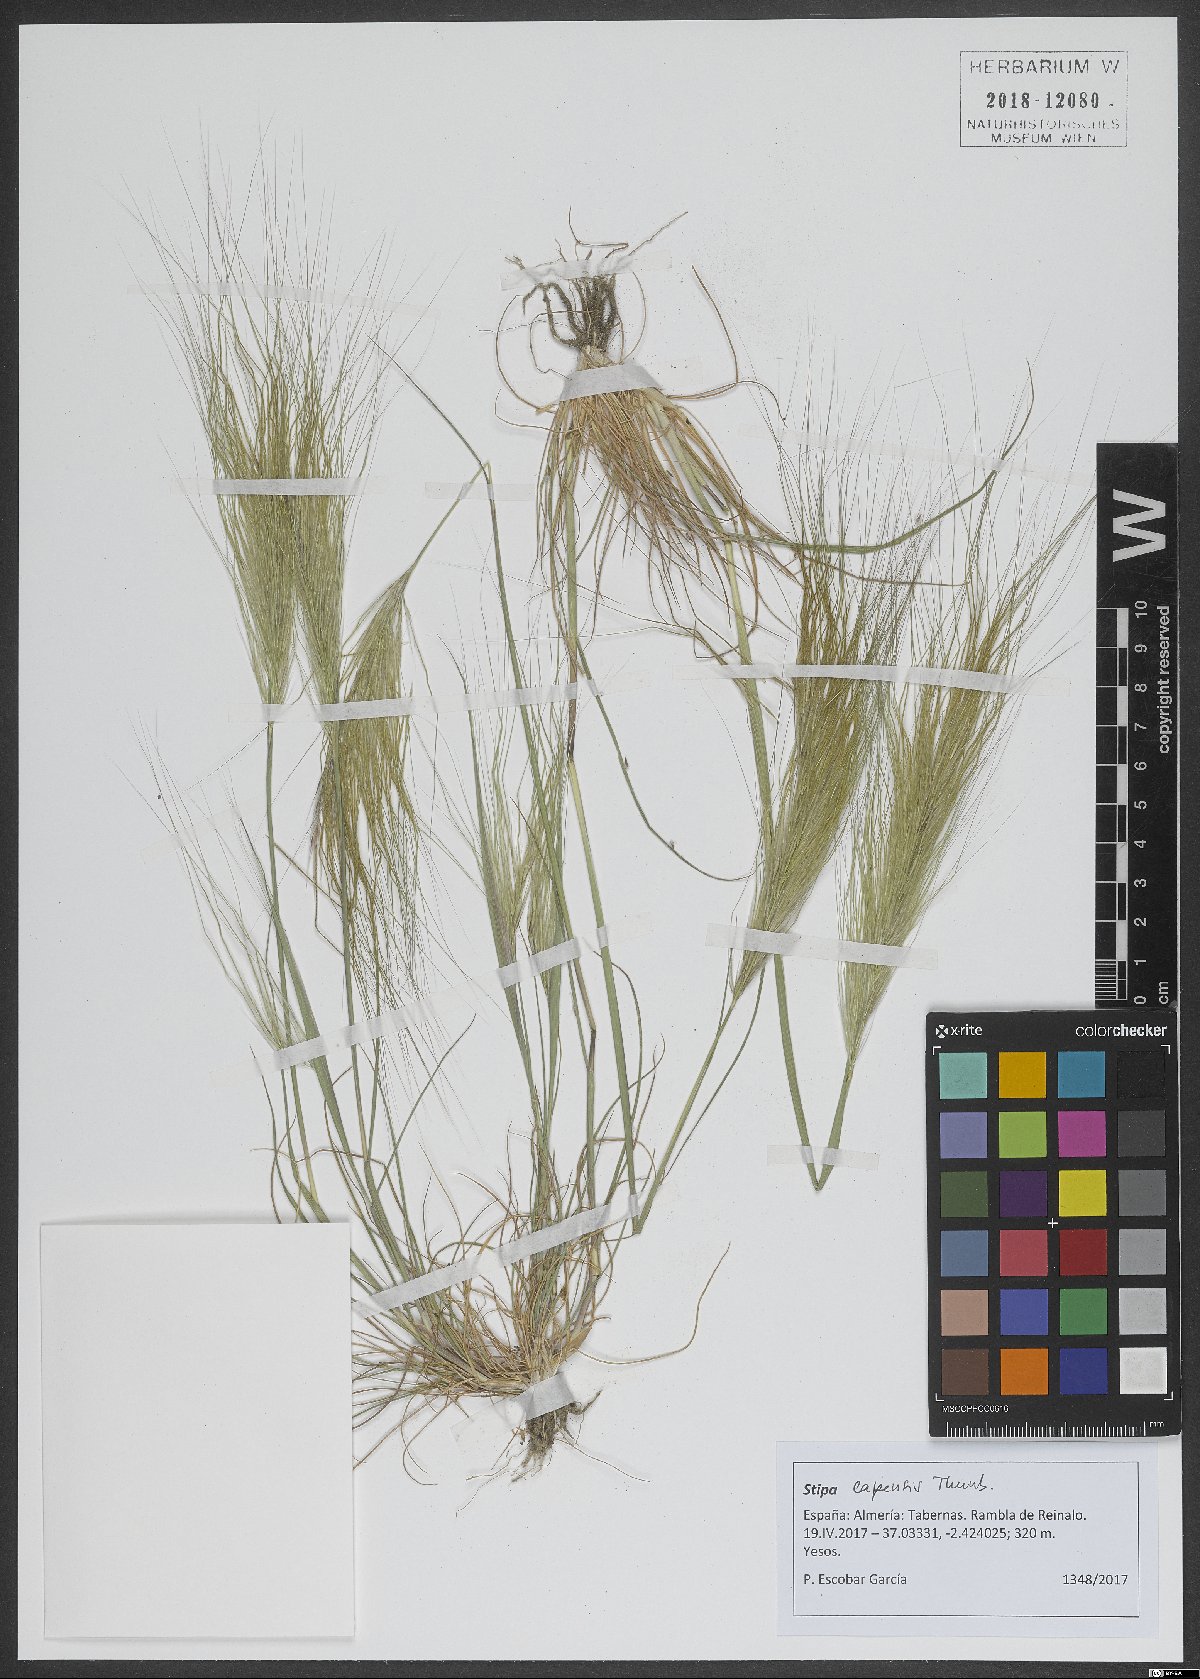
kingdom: Plantae
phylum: Tracheophyta
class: Liliopsida
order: Poales
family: Poaceae
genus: Stipellula
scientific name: Stipellula capensis
